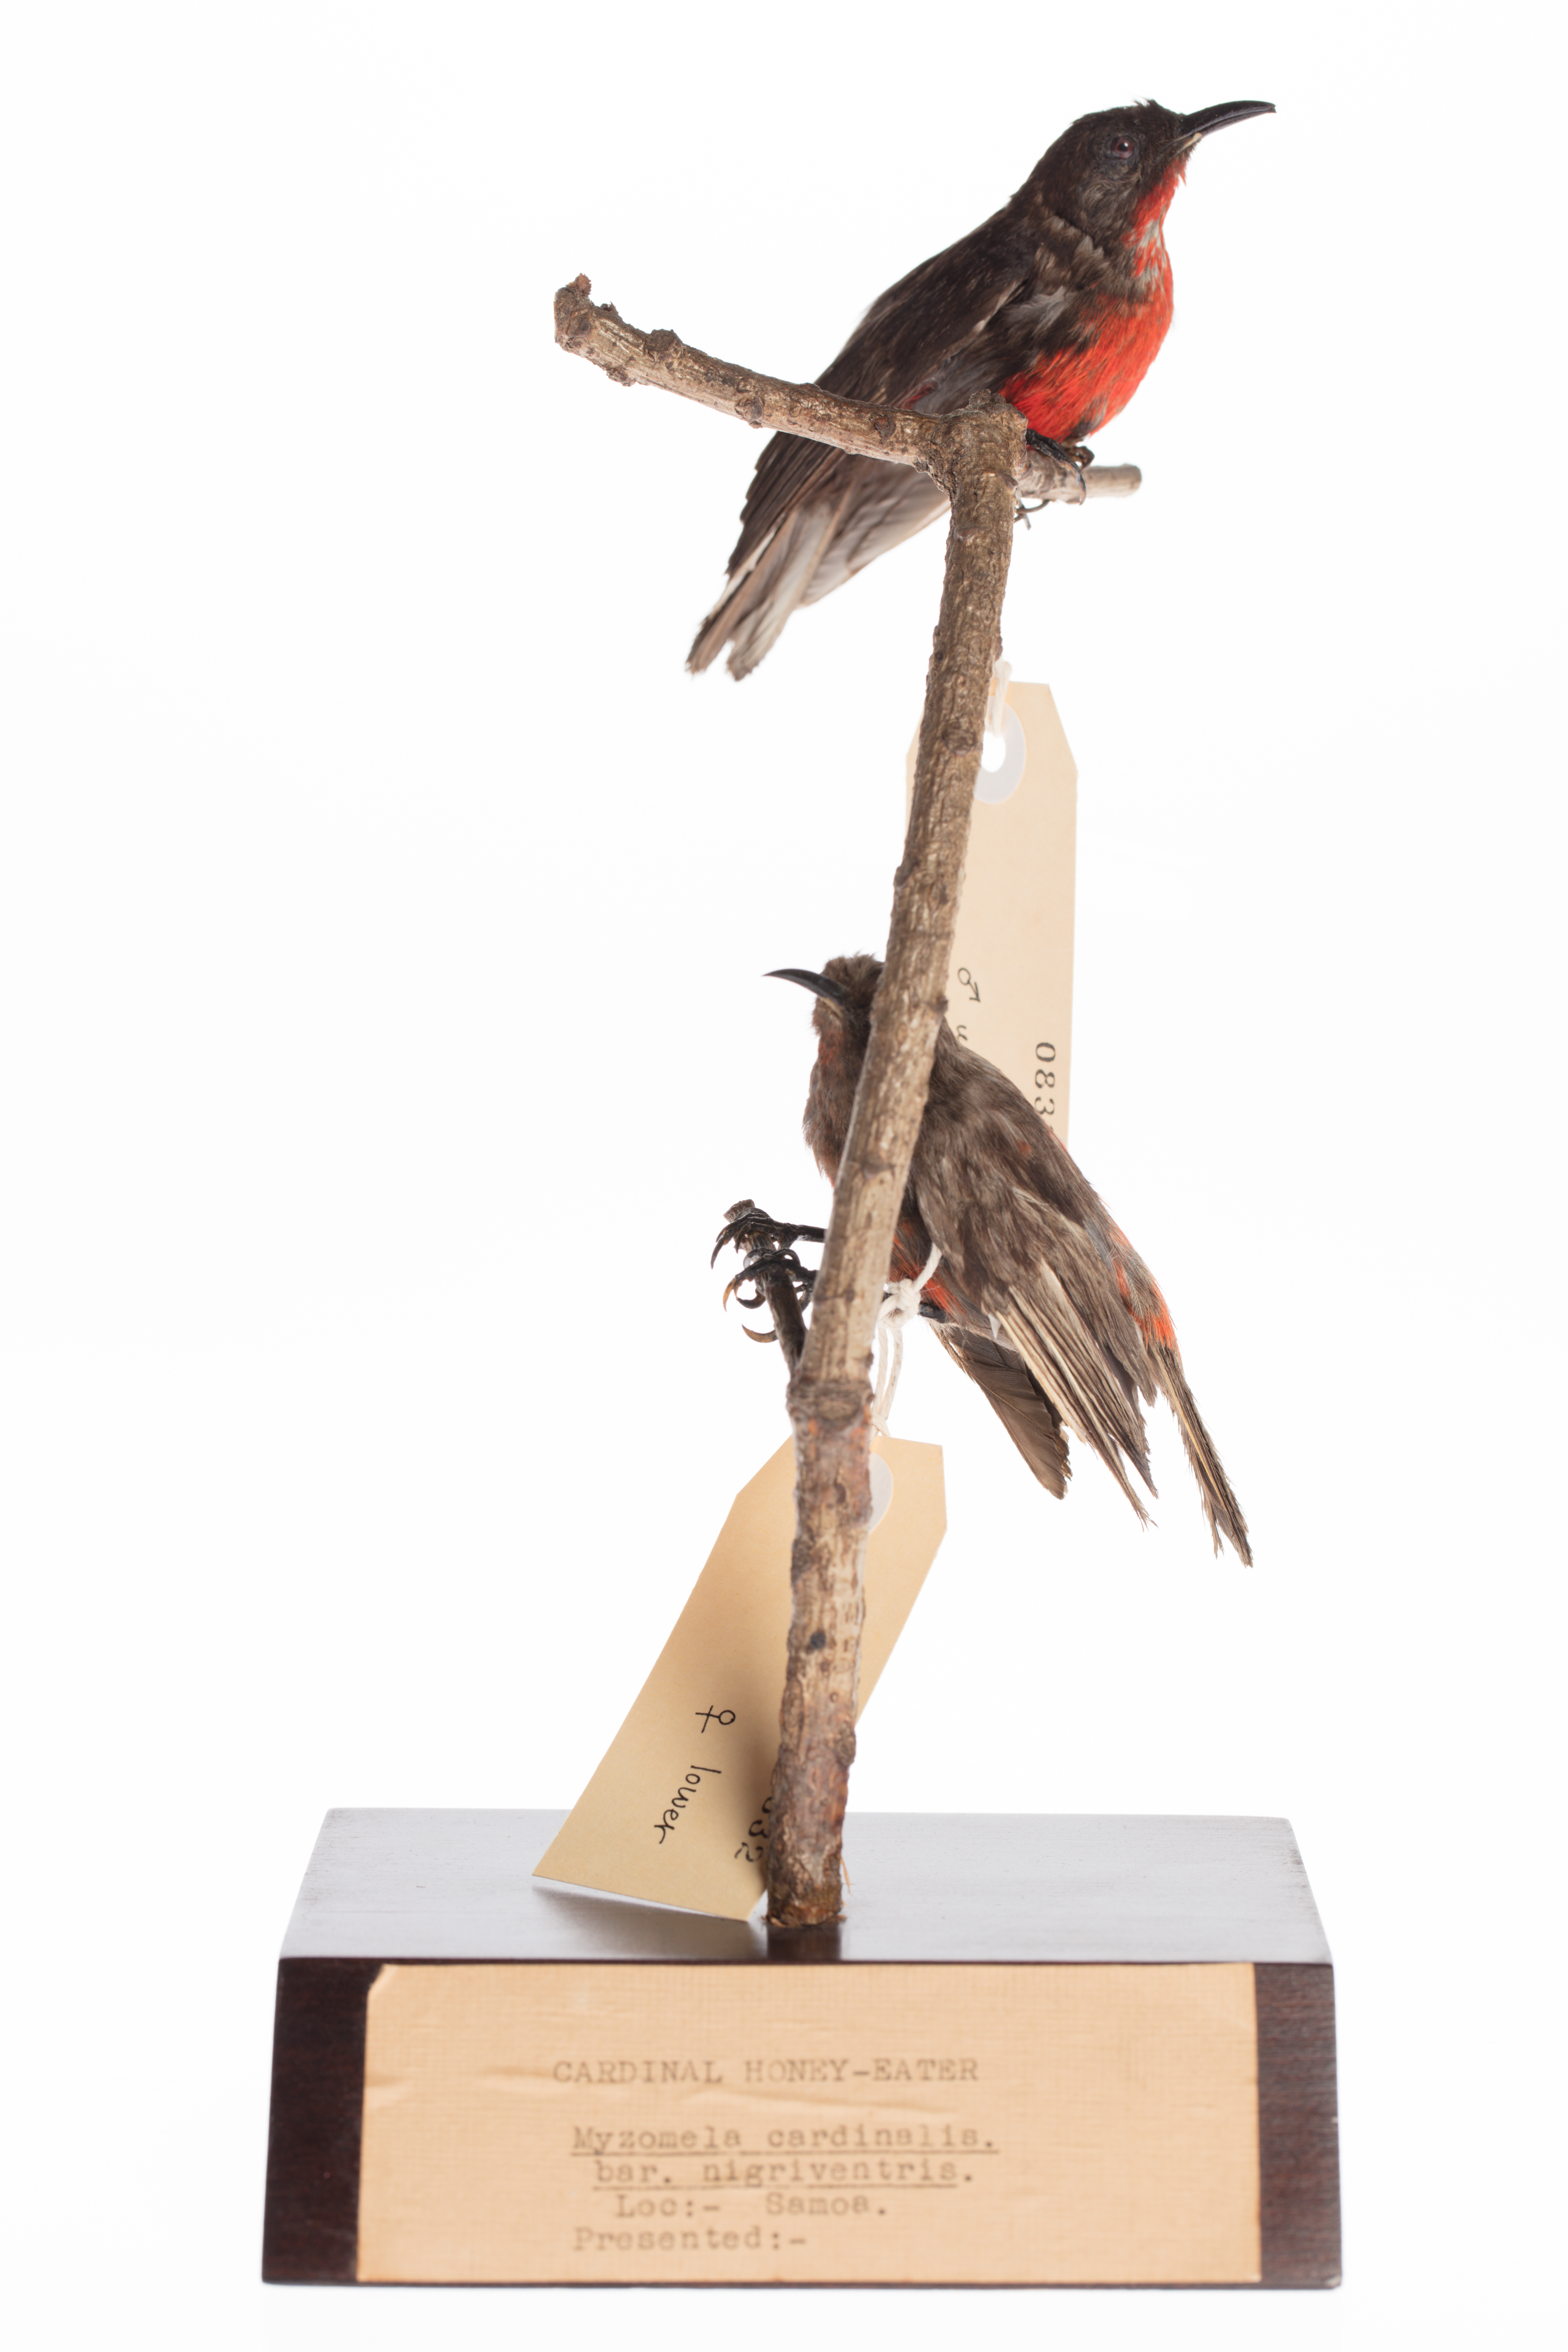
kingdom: Animalia
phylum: Chordata
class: Aves
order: Passeriformes
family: Meliphagidae
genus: Myzomela
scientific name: Myzomela cardinalis
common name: Cardinal myzomela
